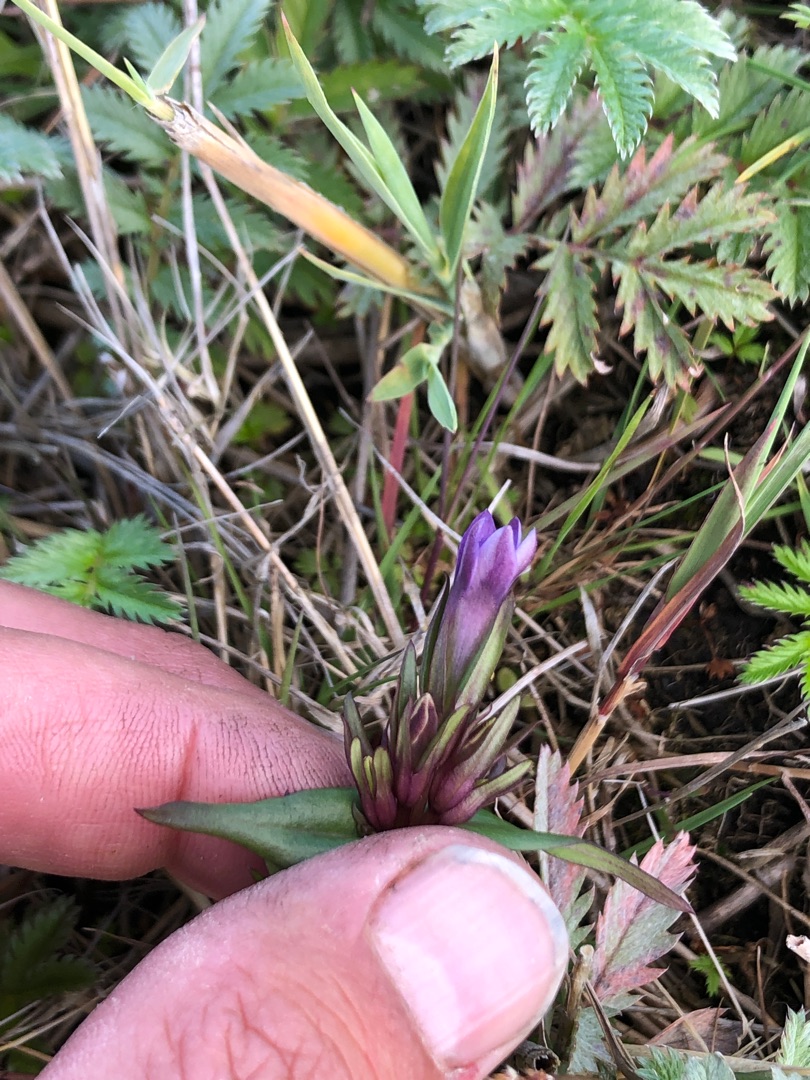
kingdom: Plantae
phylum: Tracheophyta
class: Magnoliopsida
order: Gentianales
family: Gentianaceae
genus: Gentianella
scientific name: Gentianella uliginosa
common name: Eng-ensian
